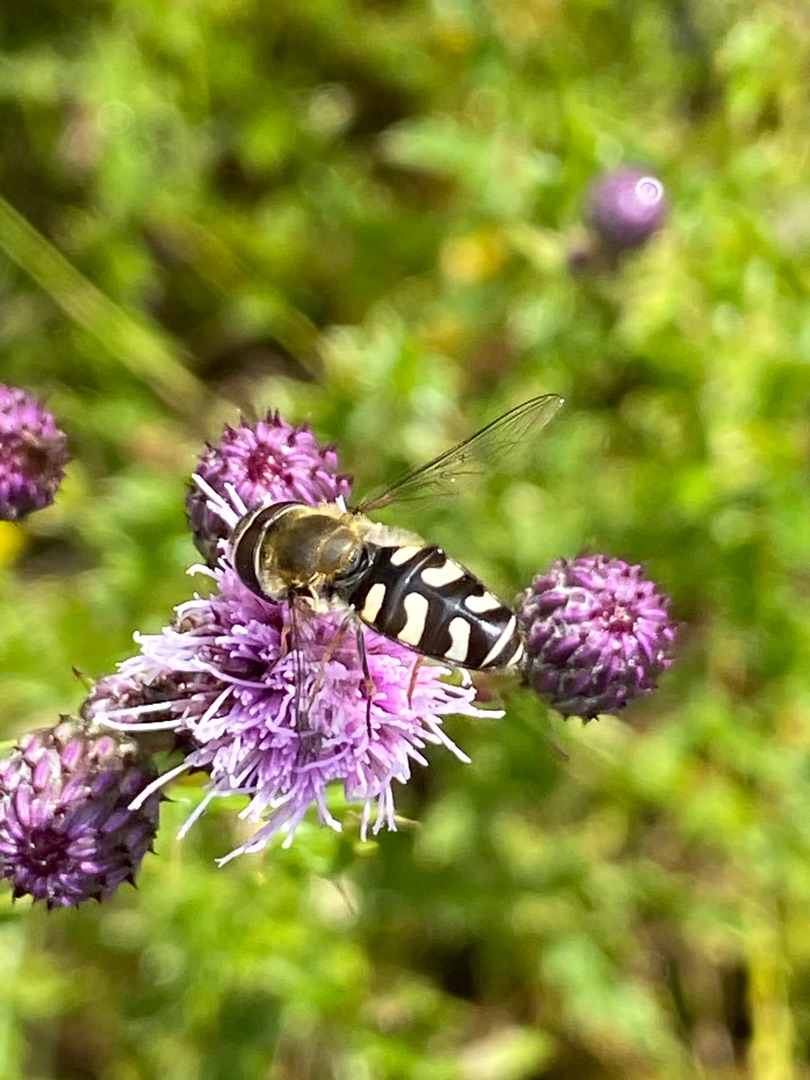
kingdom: Animalia
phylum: Arthropoda
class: Insecta
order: Diptera
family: Syrphidae
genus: Scaeva
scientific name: Scaeva pyrastri
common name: Hvidplettet agersvirreflue
